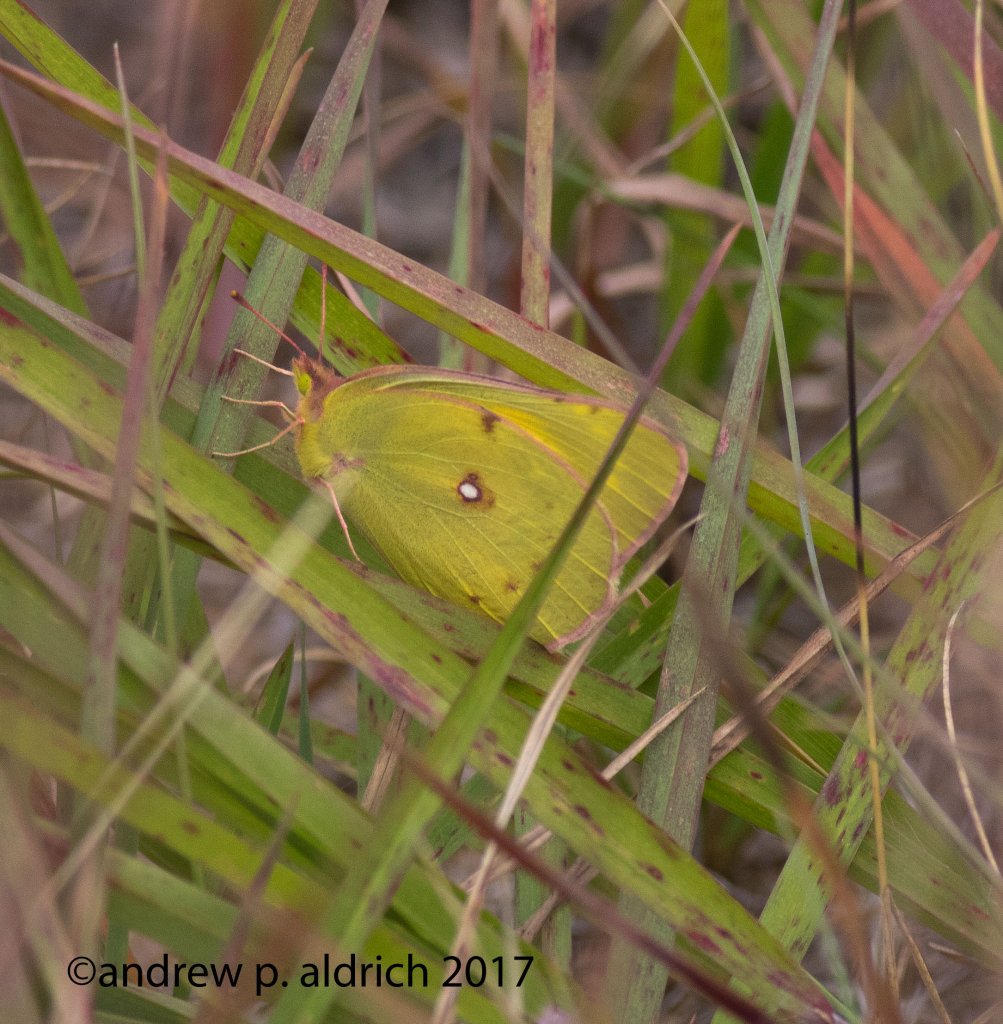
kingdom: Animalia
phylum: Arthropoda
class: Insecta
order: Lepidoptera
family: Pieridae
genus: Colias
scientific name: Colias philodice
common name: Clouded Sulphur
